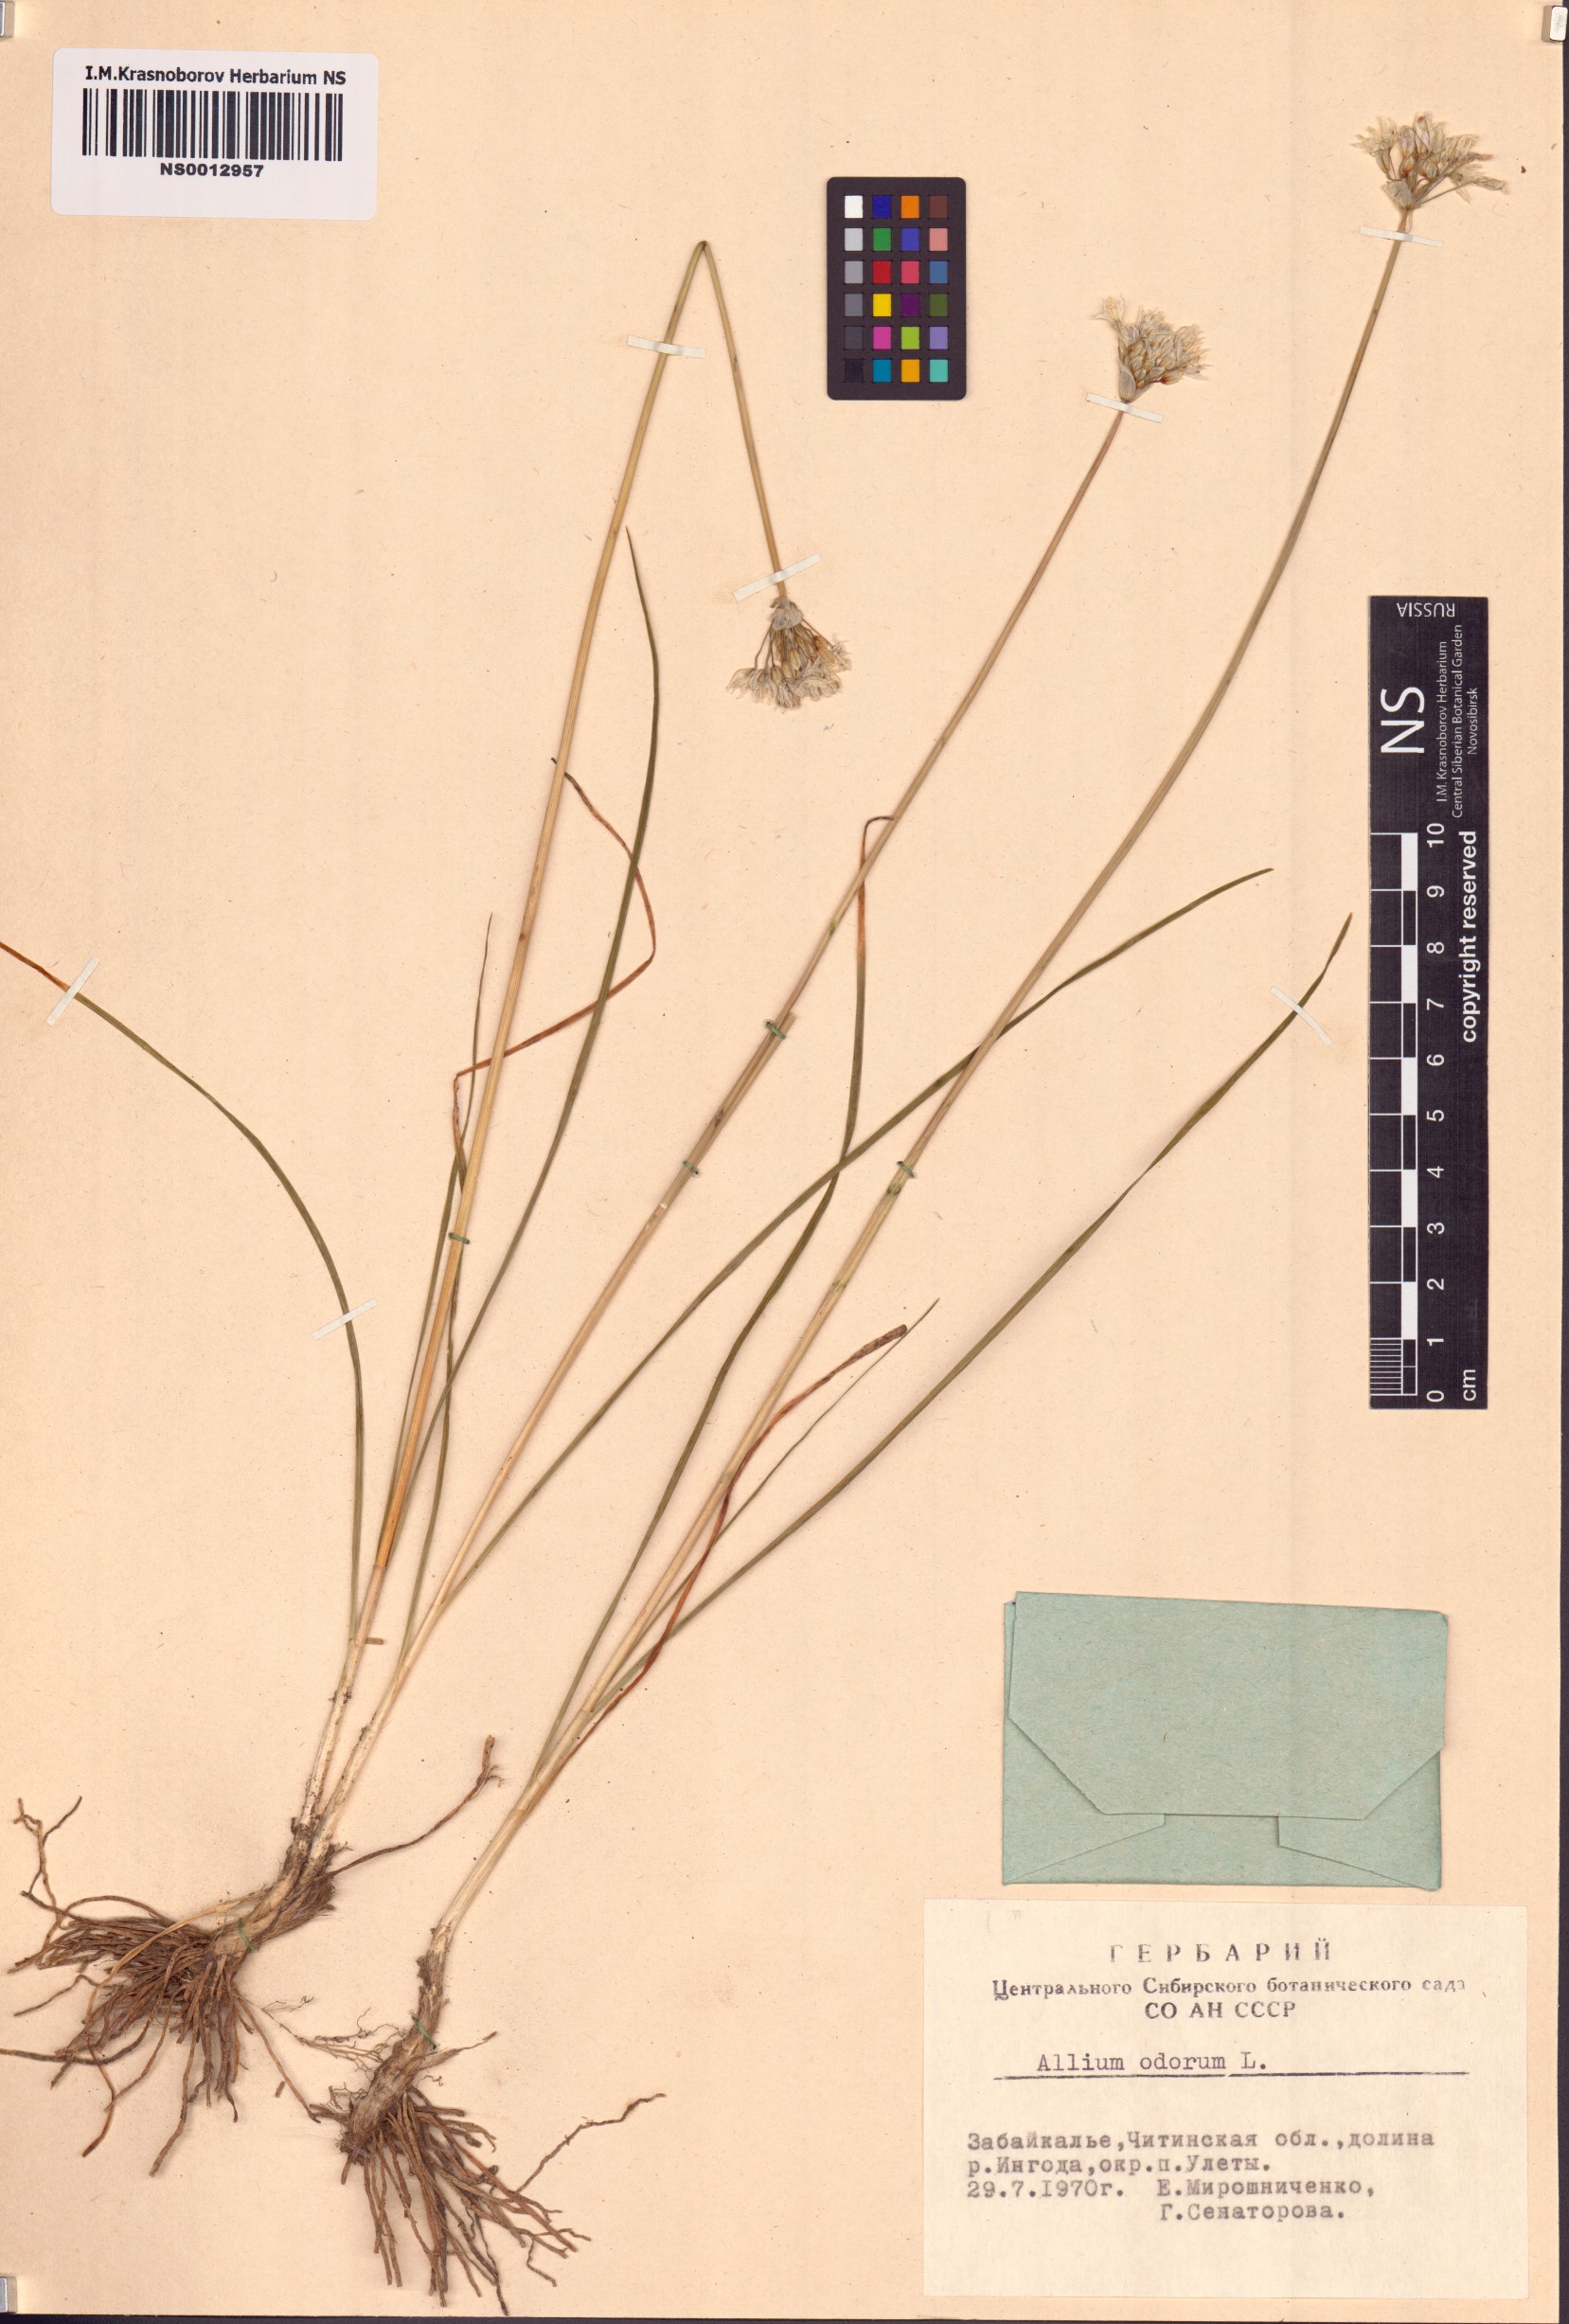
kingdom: Plantae
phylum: Tracheophyta
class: Liliopsida
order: Asparagales
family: Amaryllidaceae
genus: Allium
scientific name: Allium ramosum
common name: Fragrant garlic
